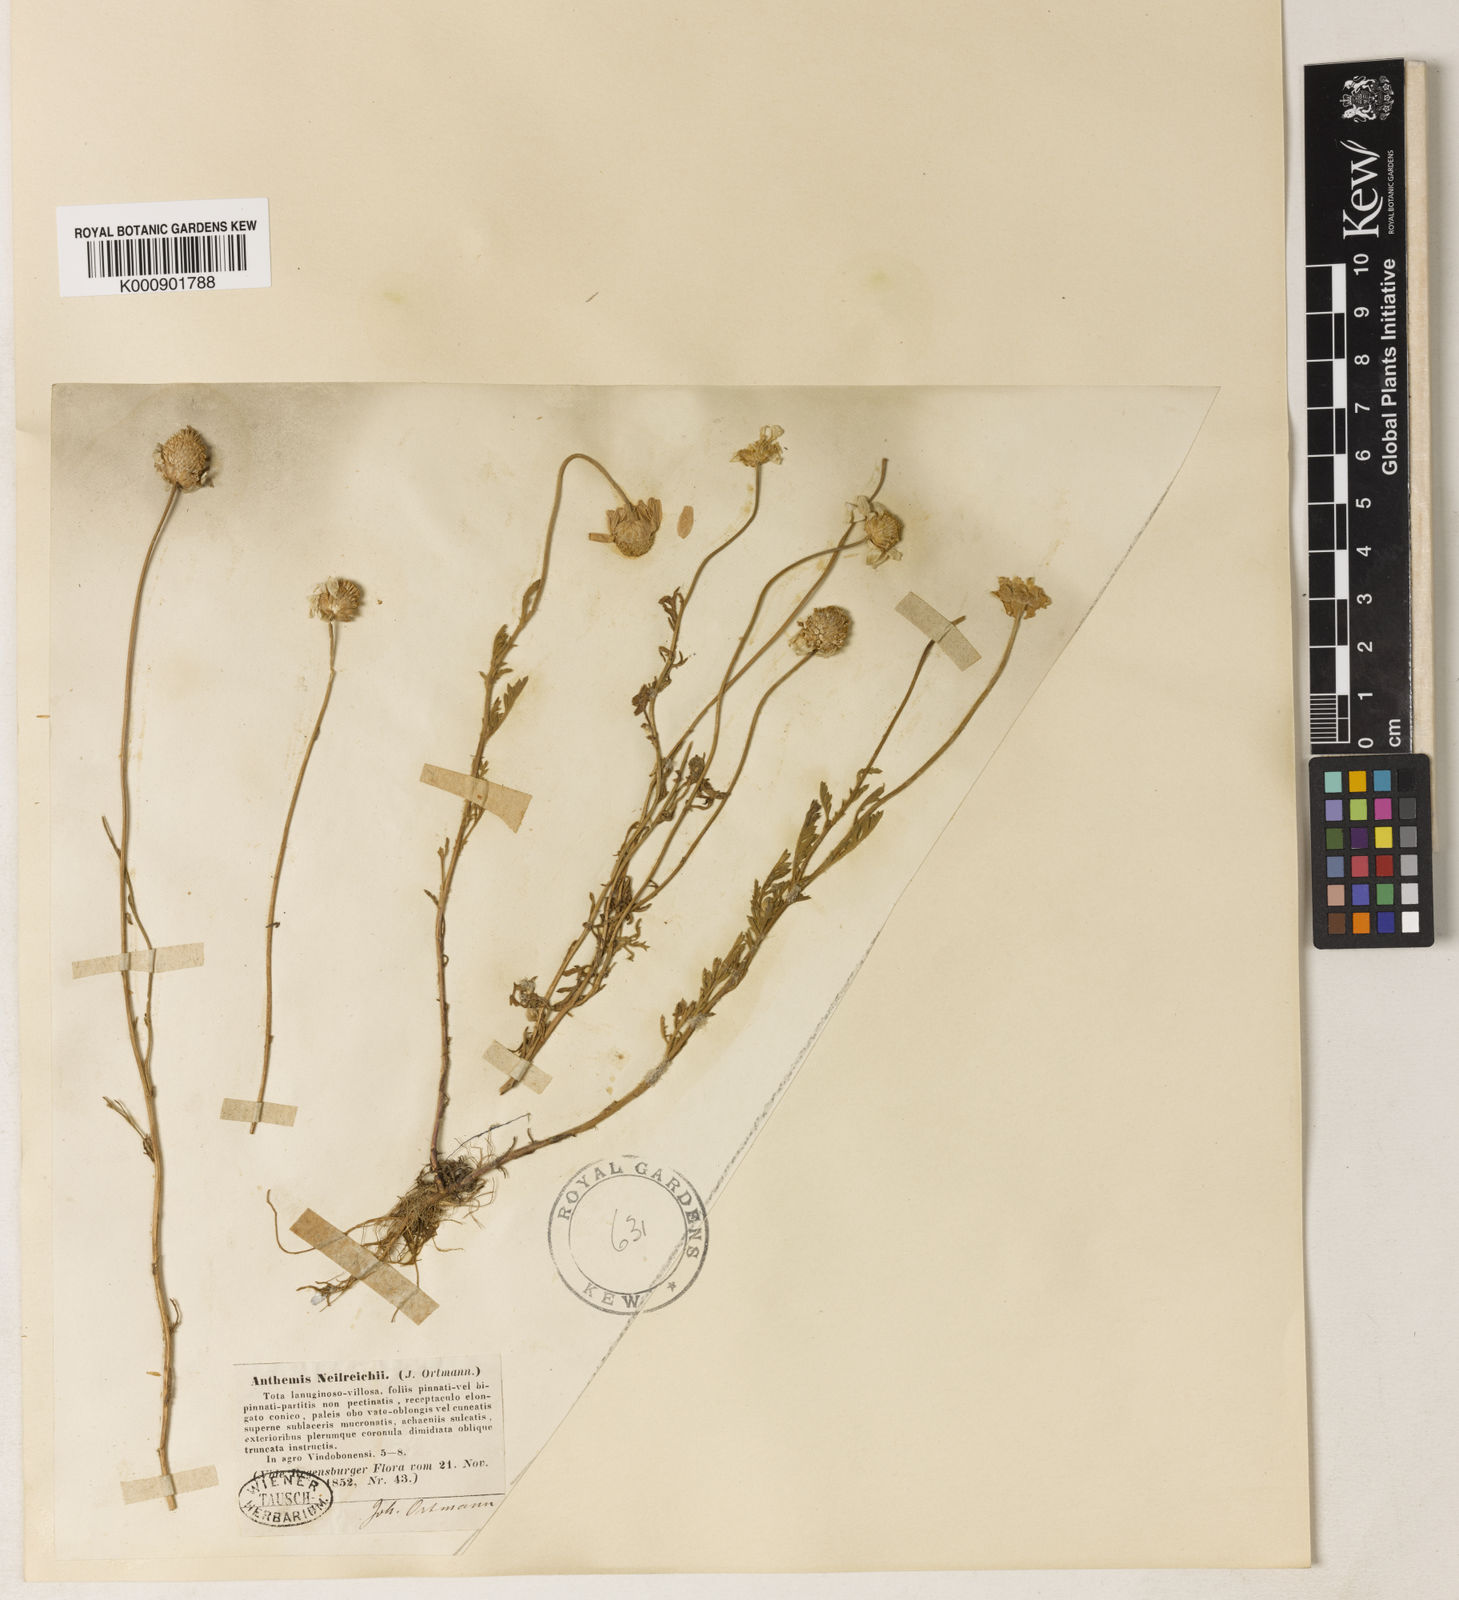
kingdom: Plantae
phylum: Tracheophyta
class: Magnoliopsida
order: Asterales
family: Asteraceae
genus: Anthemis
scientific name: Anthemis ruthenica
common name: Eastern chamomile
